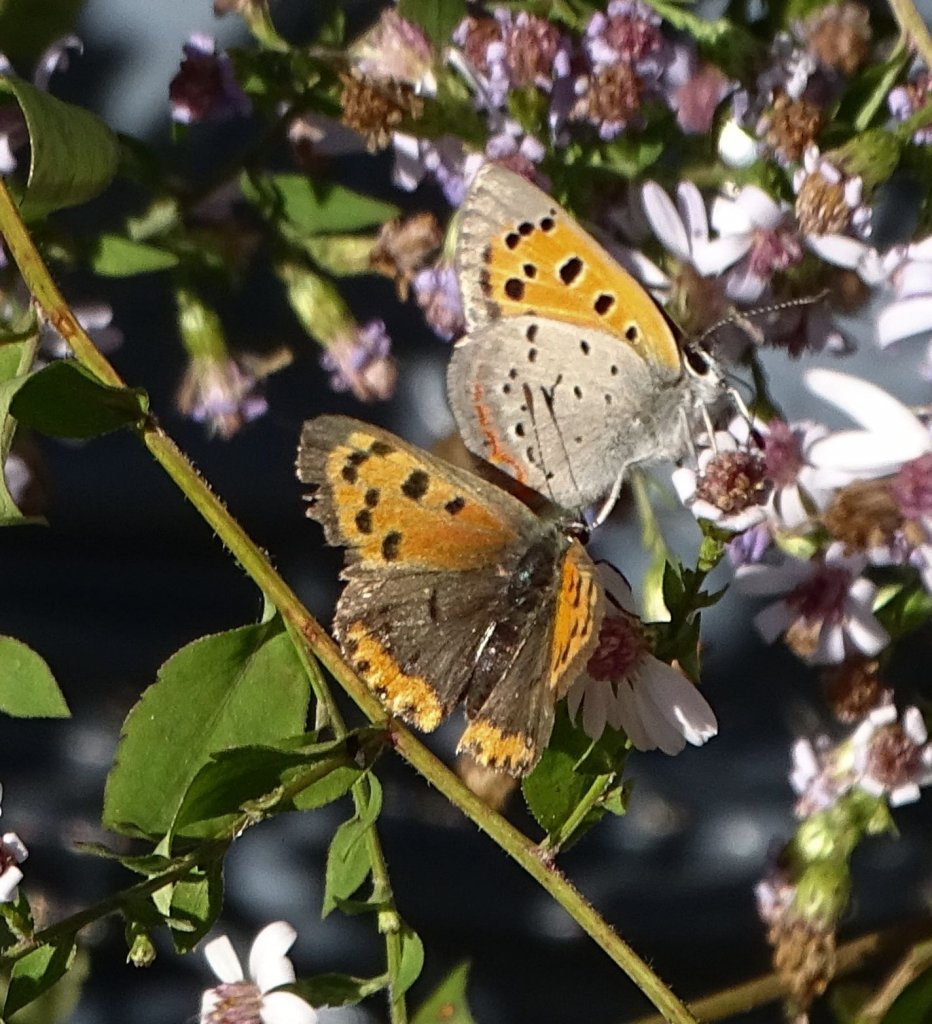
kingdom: Animalia
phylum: Arthropoda
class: Insecta
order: Lepidoptera
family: Lycaenidae
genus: Lycaena
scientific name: Lycaena phlaeas
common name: American Copper
